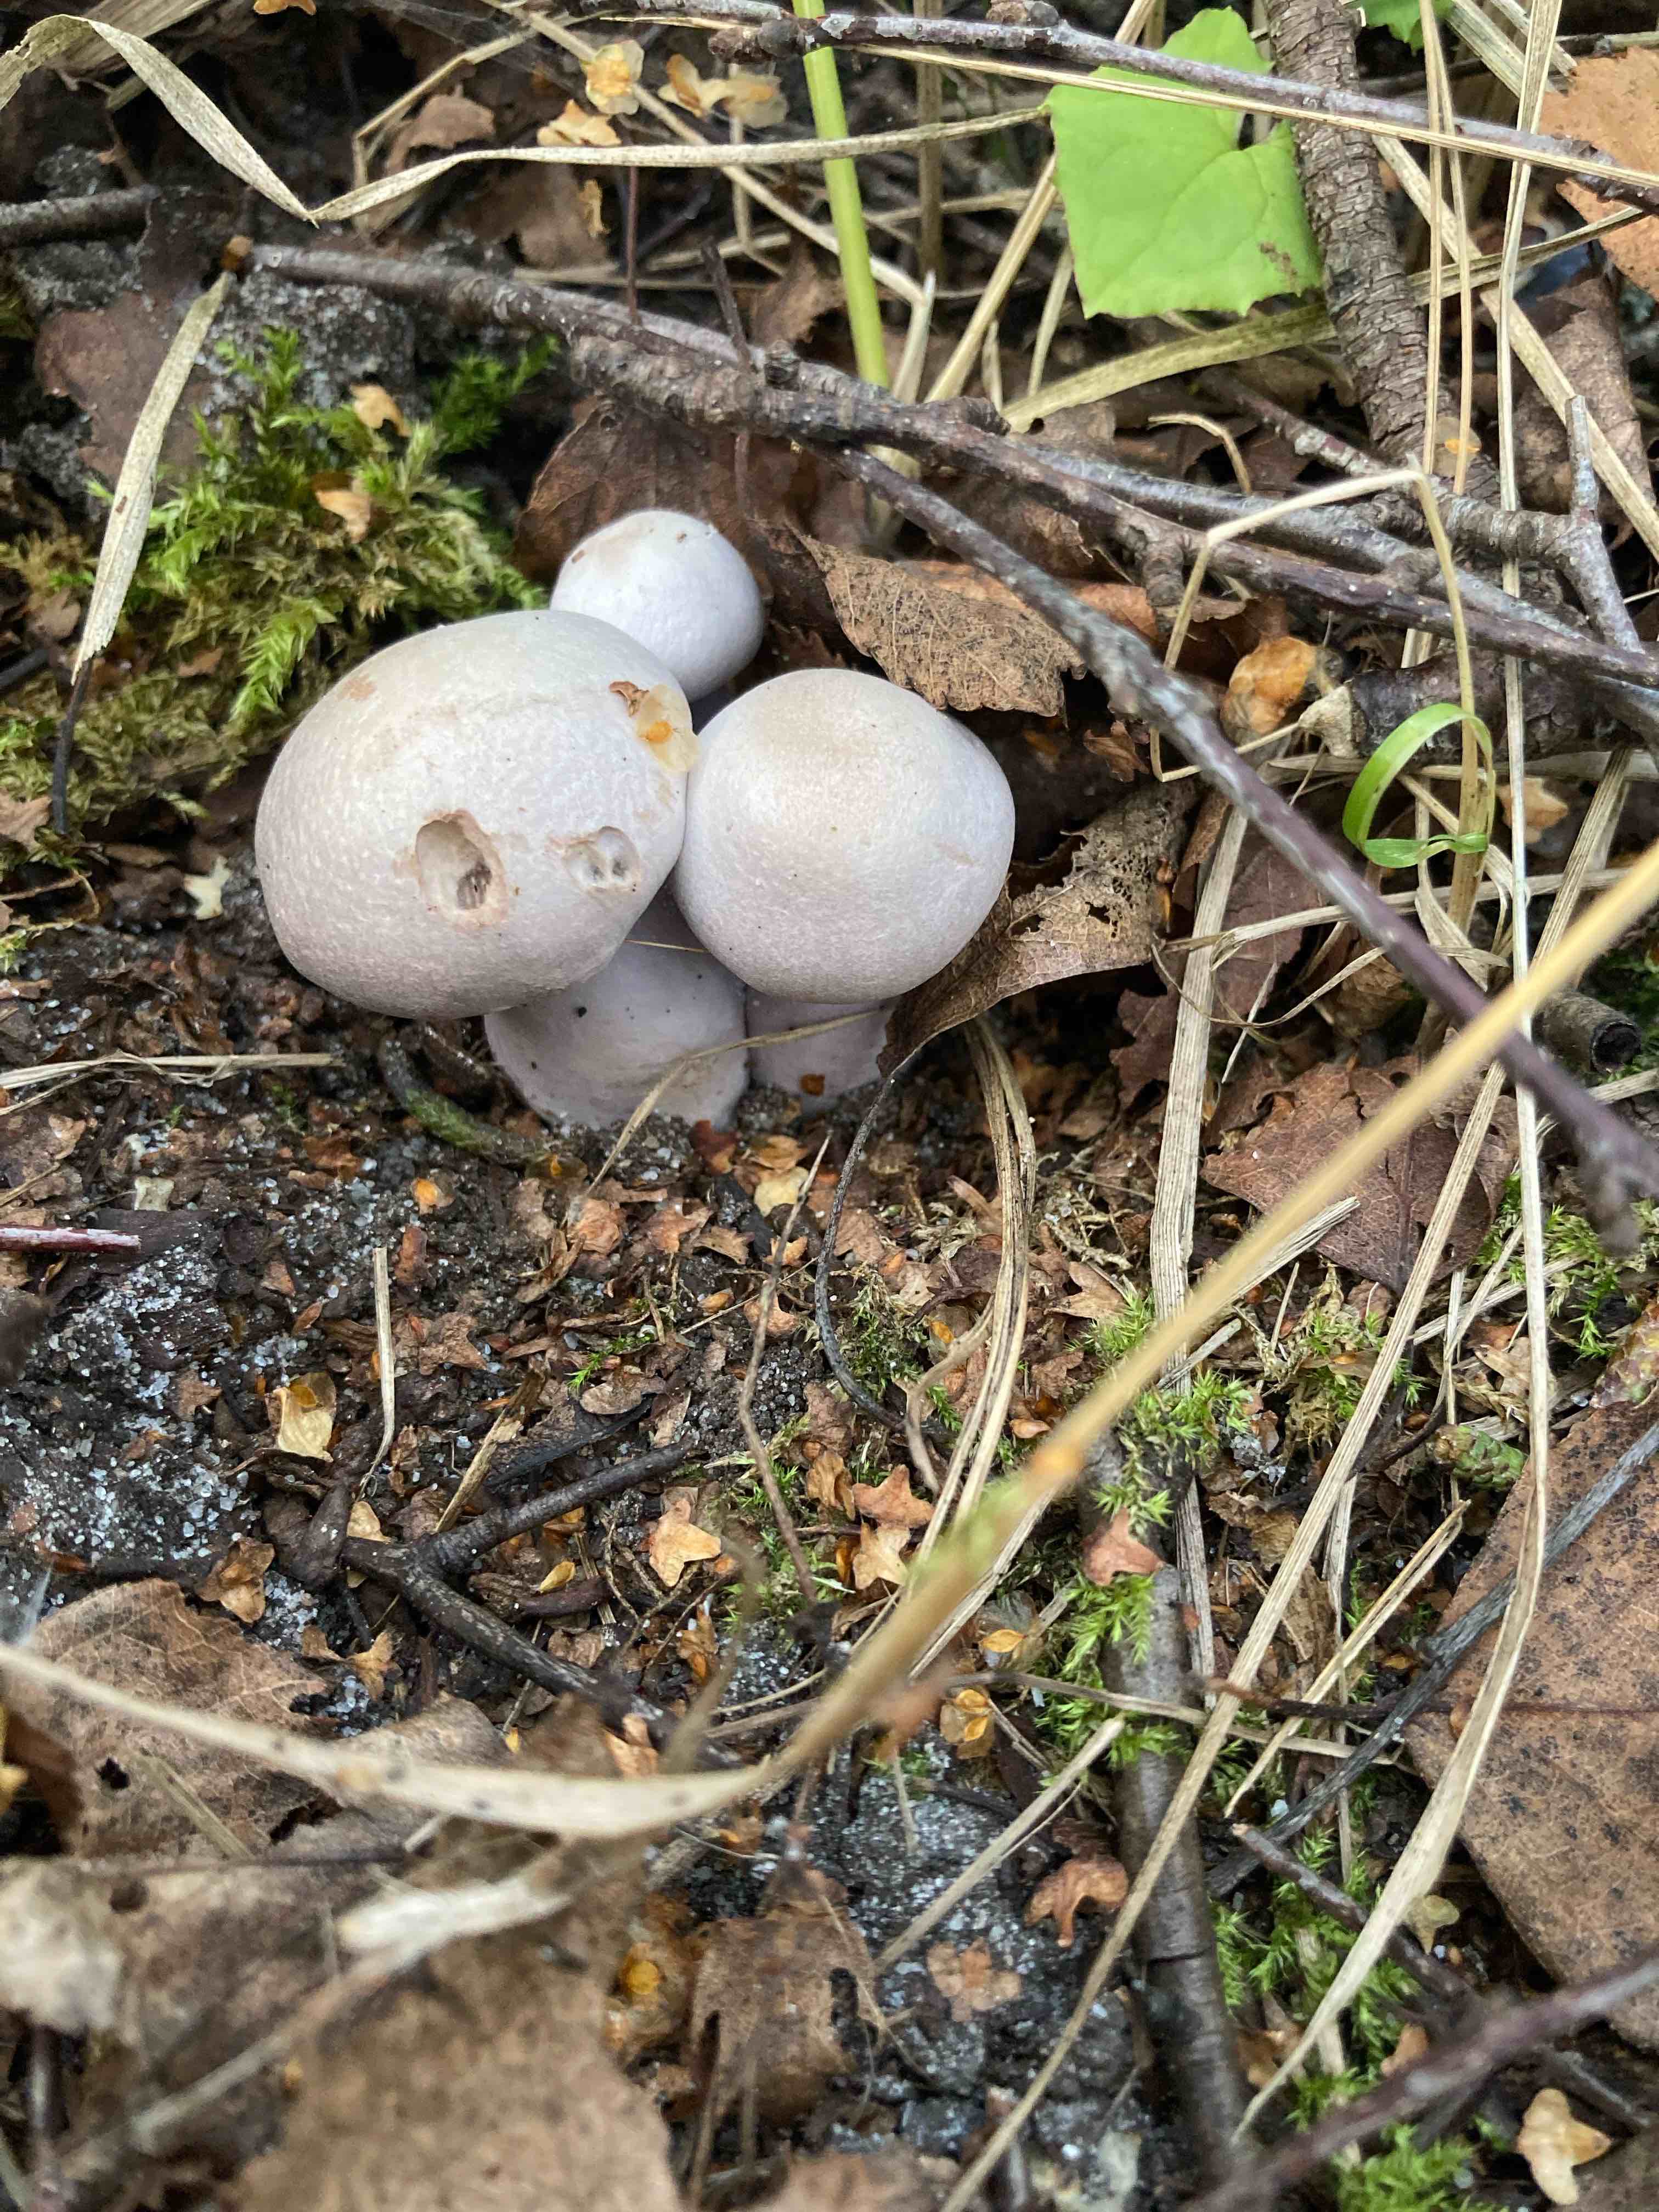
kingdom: Fungi
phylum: Basidiomycota
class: Agaricomycetes
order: Agaricales
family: Cortinariaceae
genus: Cortinarius
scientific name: Cortinarius
